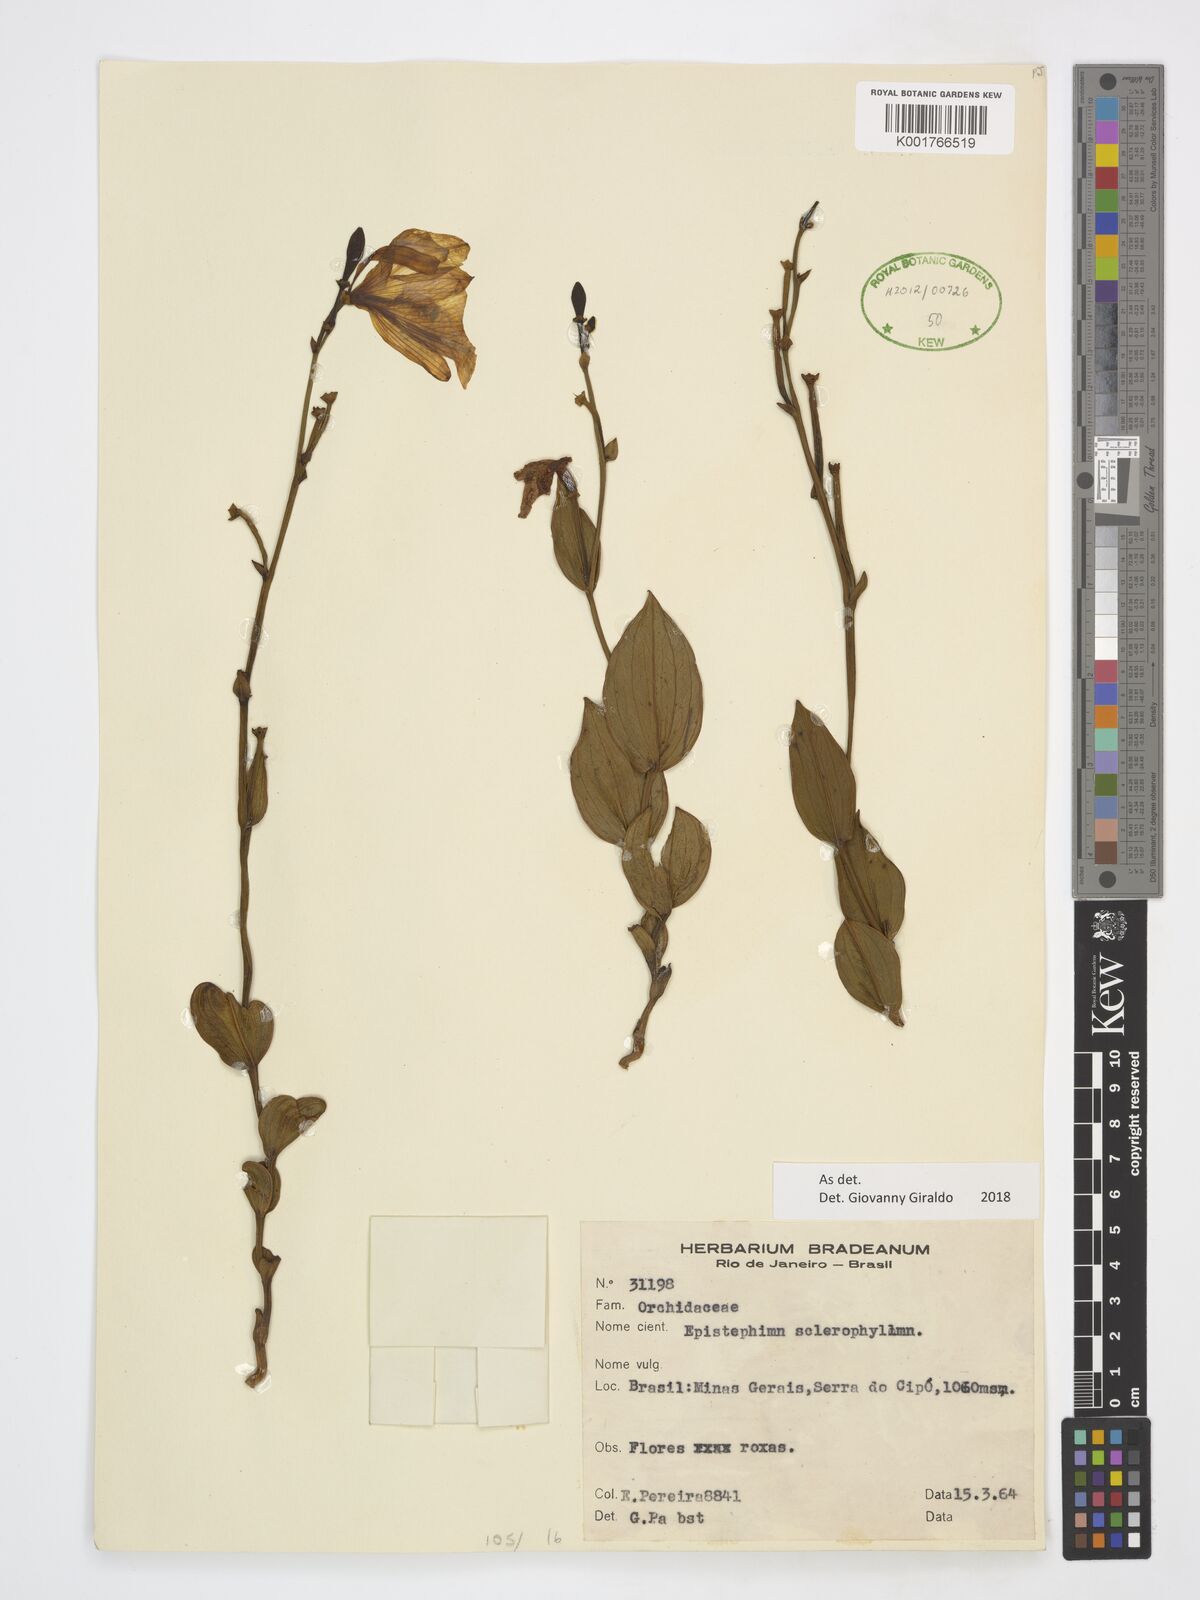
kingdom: Plantae
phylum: Tracheophyta
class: Liliopsida
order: Asparagales
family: Orchidaceae
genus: Epistephium
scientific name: Epistephium sclerophyllum
